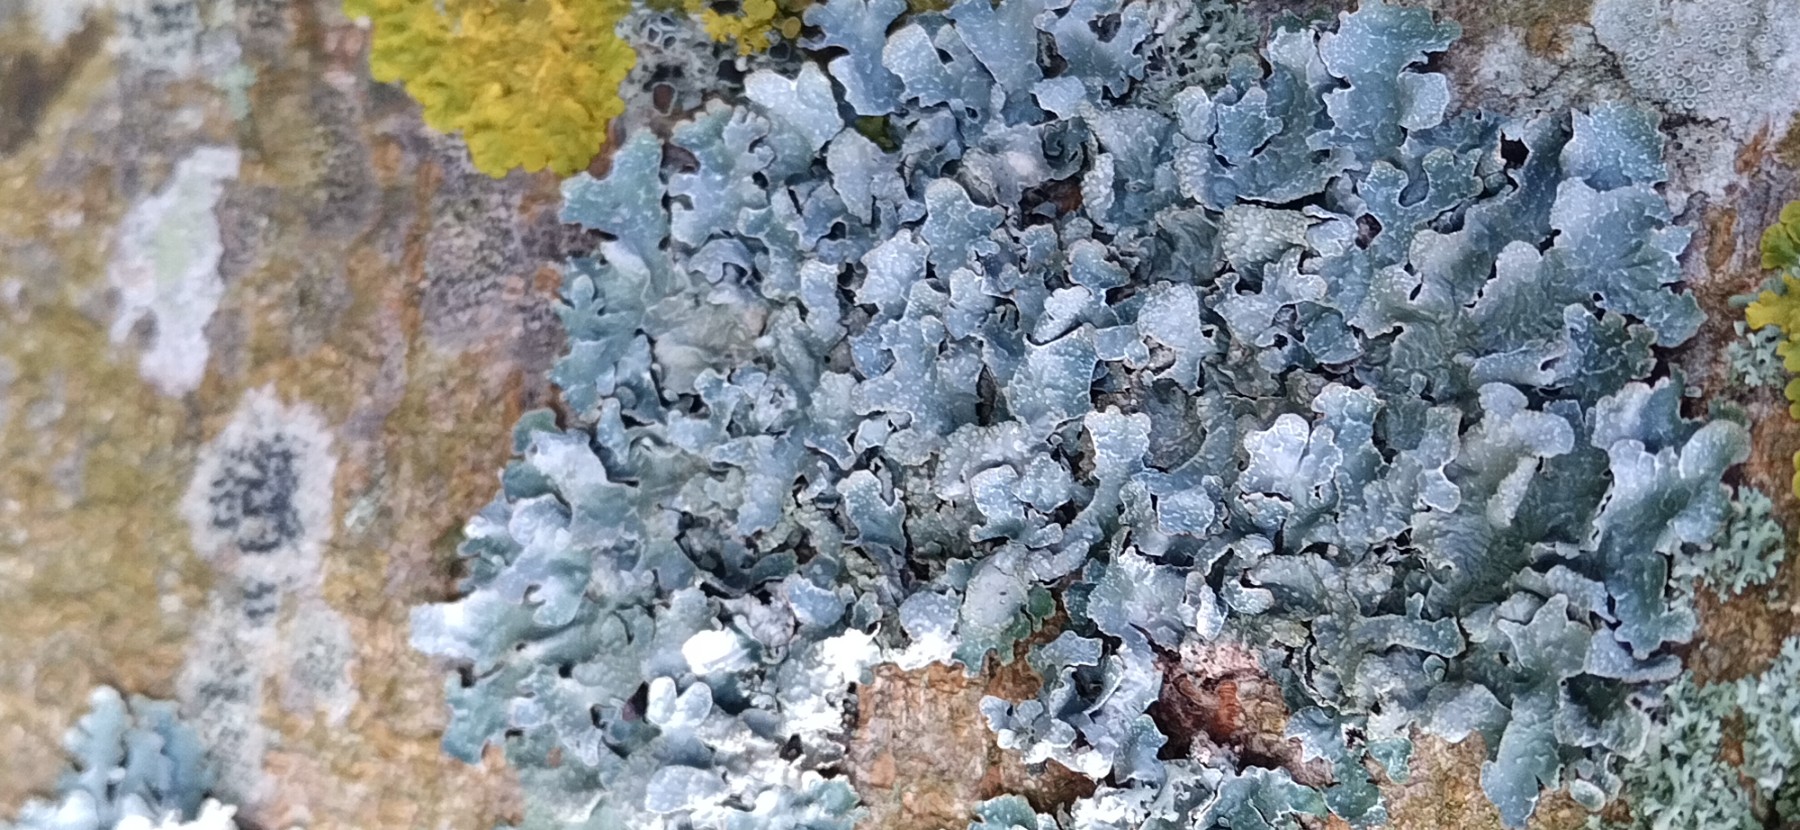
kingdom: Fungi
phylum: Ascomycota
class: Lecanoromycetes
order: Lecanorales
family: Parmeliaceae
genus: Parmelia
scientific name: Parmelia sulcata
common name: rynket skållav
